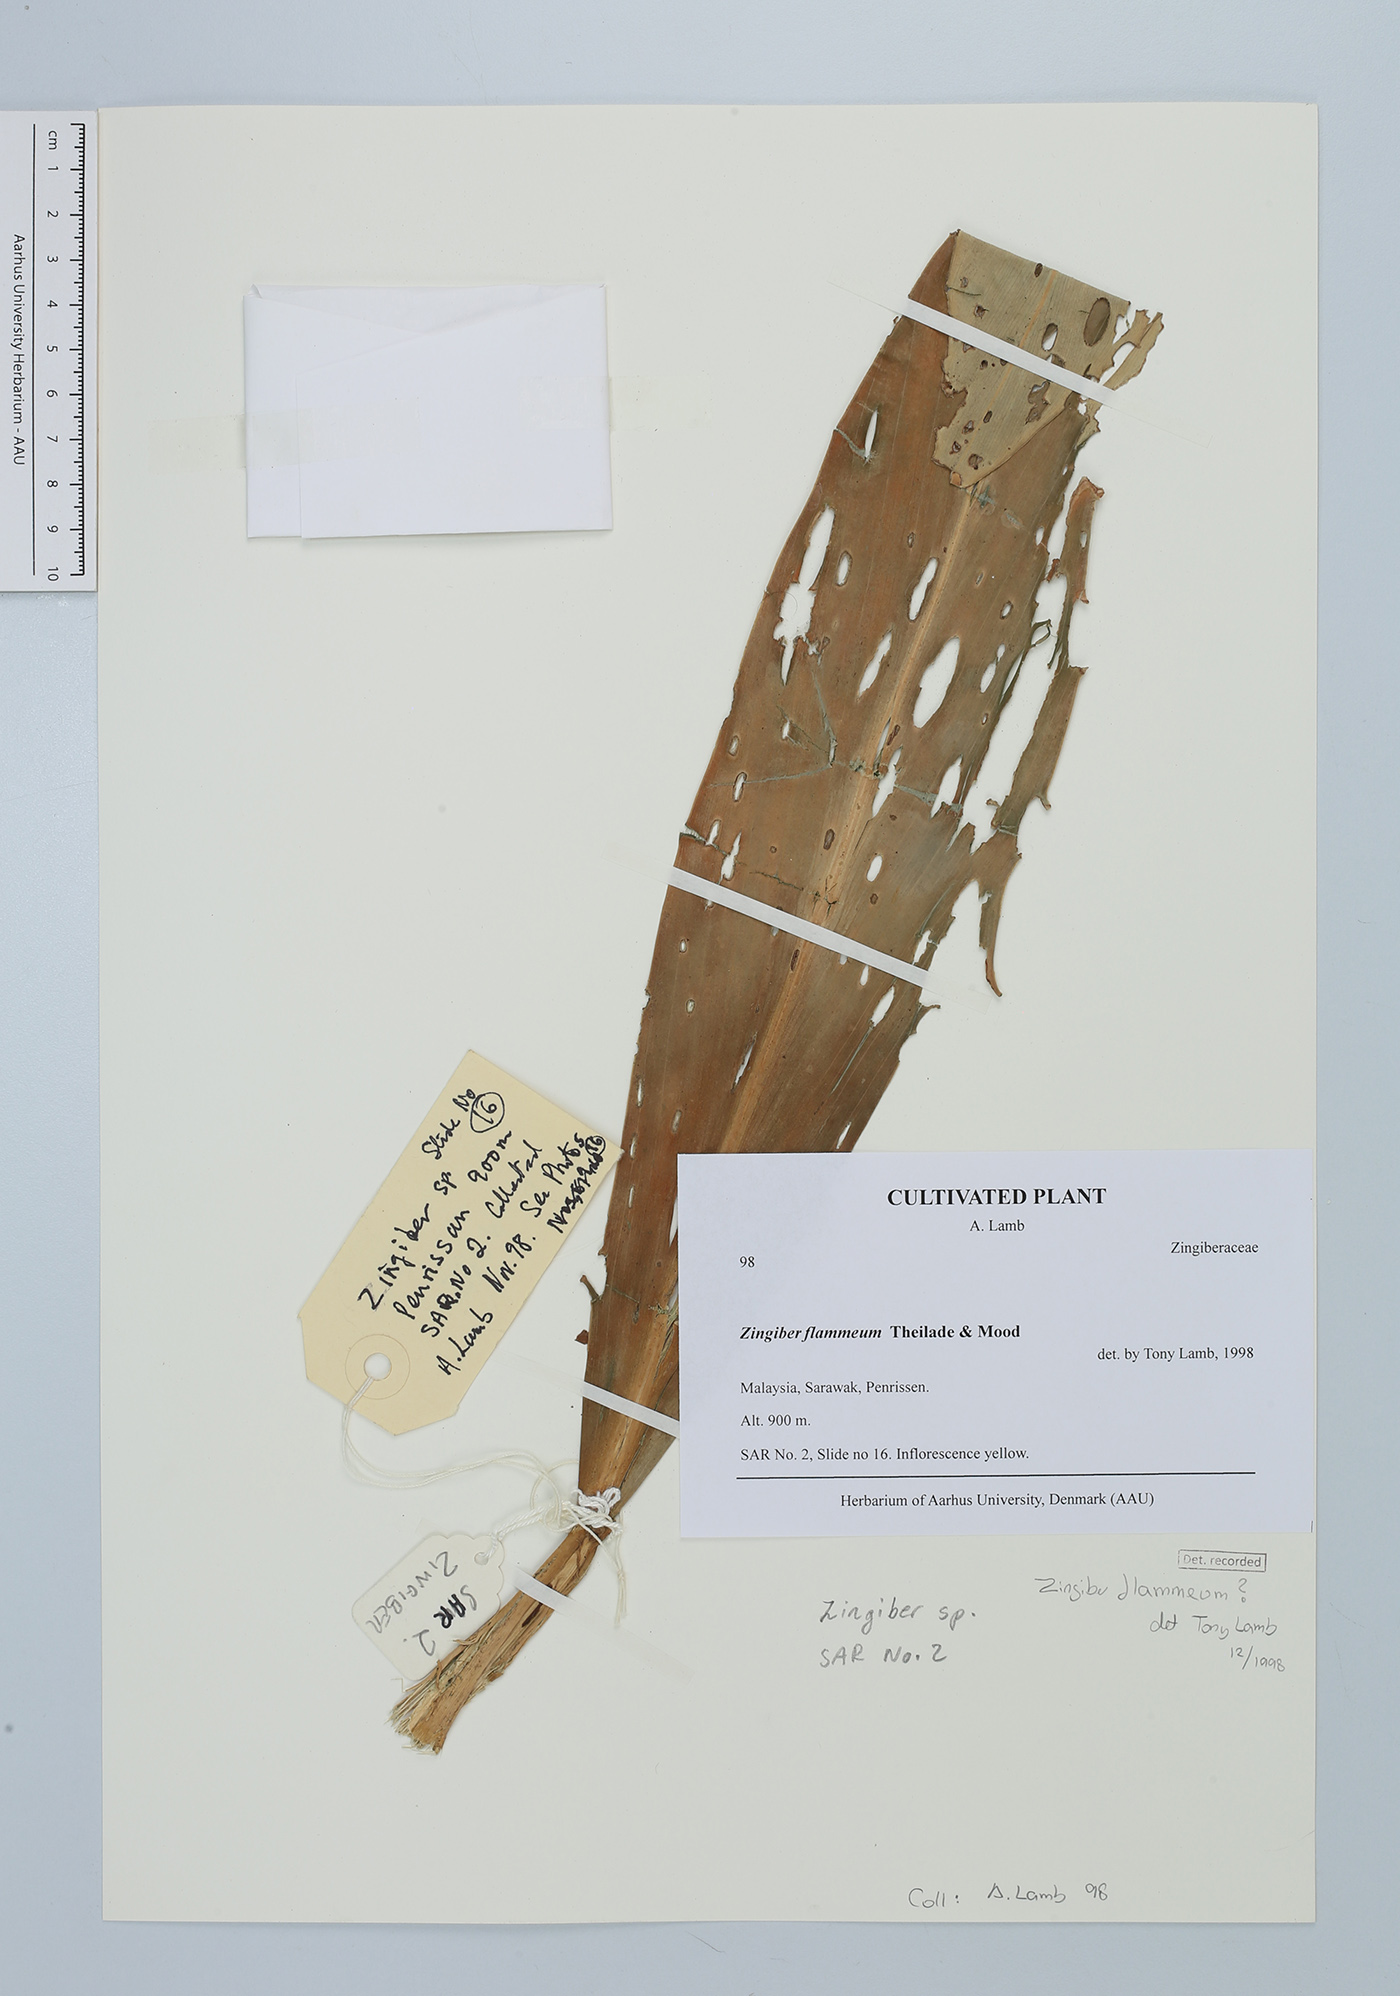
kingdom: Plantae
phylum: Tracheophyta
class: Liliopsida
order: Zingiberales
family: Zingiberaceae
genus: Zingiber
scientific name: Zingiber flammeum
